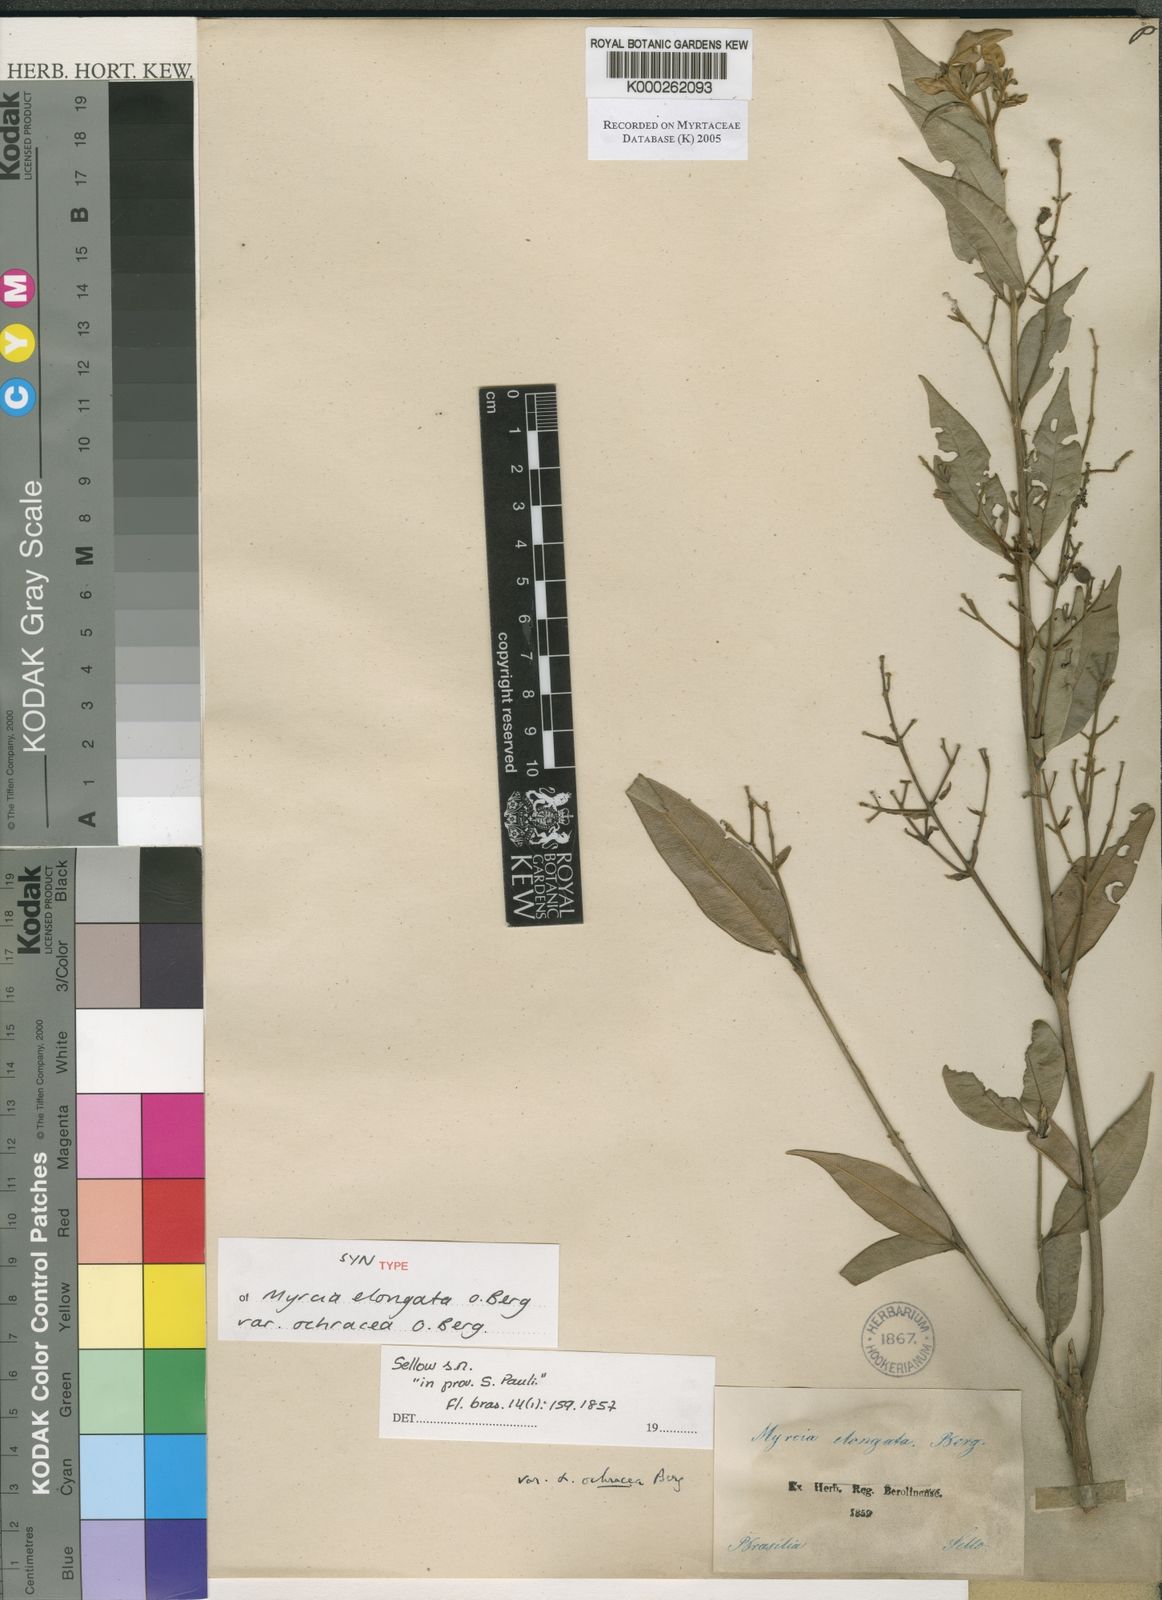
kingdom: Plantae
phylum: Tracheophyta
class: Magnoliopsida
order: Myrtales
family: Myrtaceae
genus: Myrcia
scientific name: Myrcia splendens
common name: Surinam cherry
